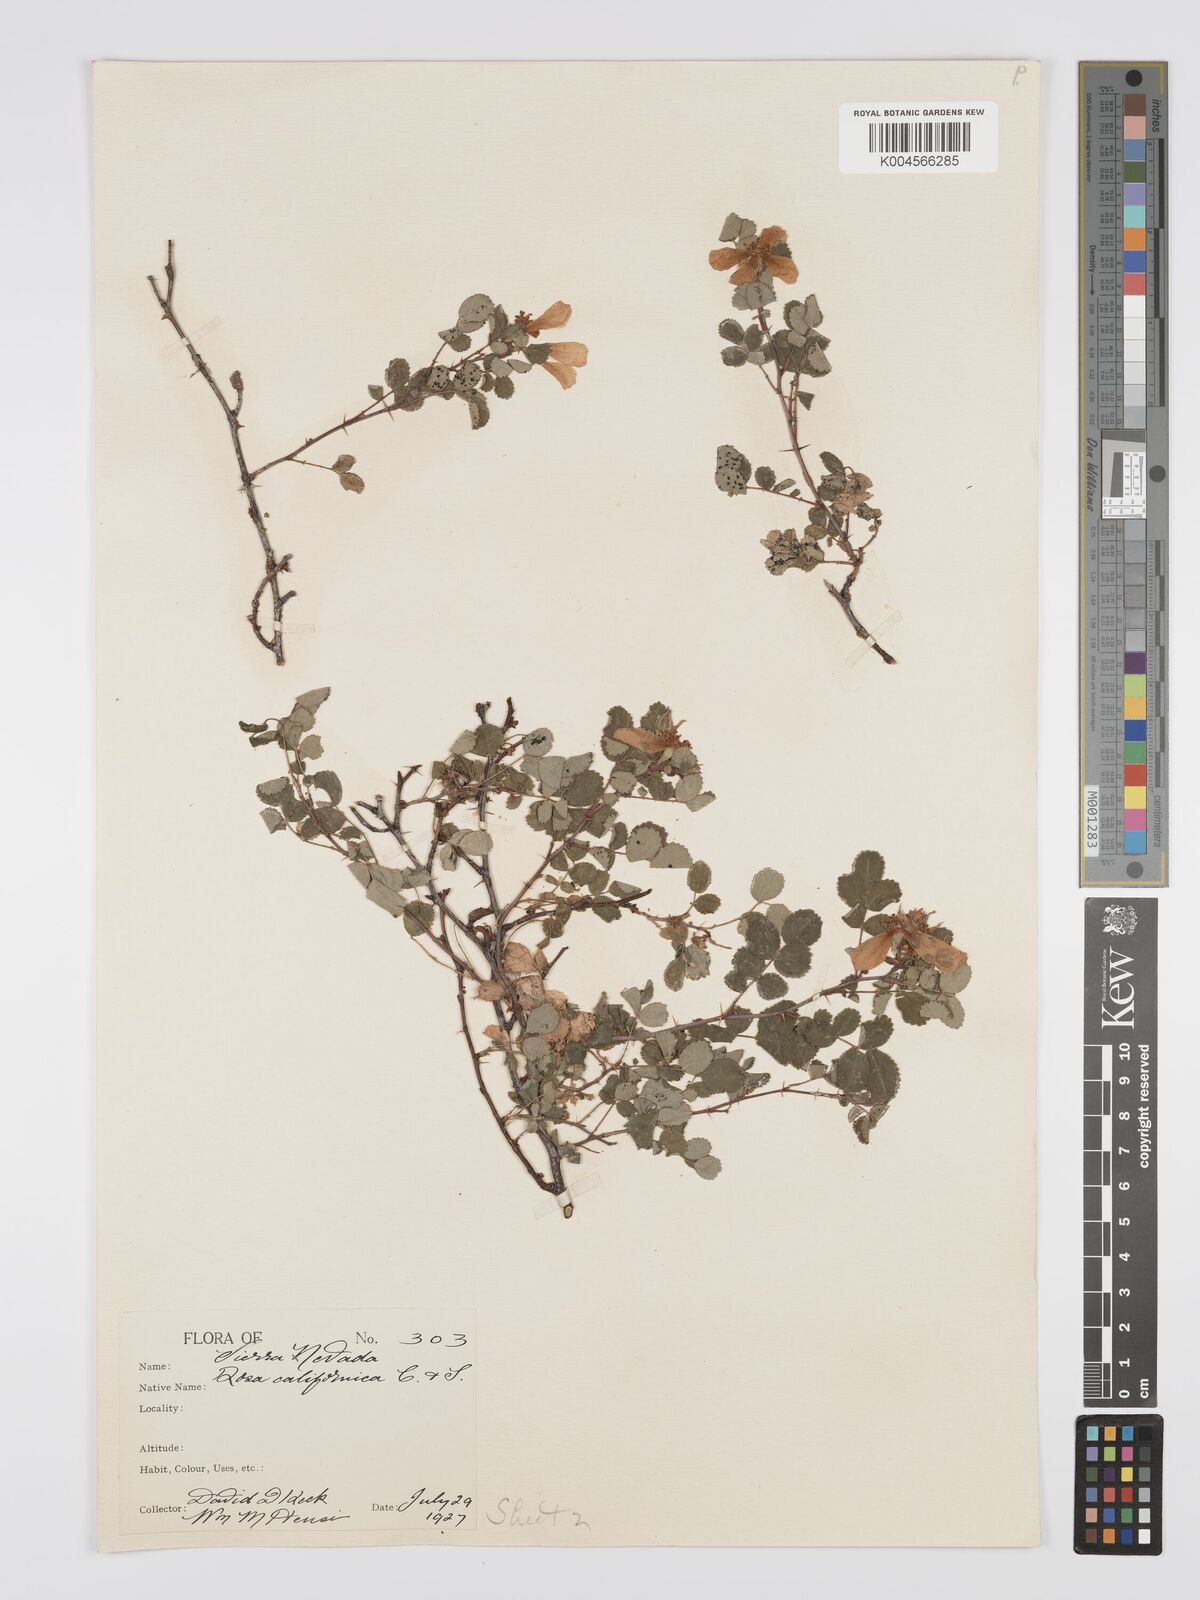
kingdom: Plantae
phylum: Tracheophyta
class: Magnoliopsida
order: Rosales
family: Rosaceae
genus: Rosa
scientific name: Rosa bridgesii
